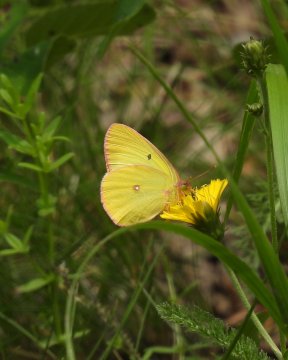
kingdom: Animalia
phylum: Arthropoda
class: Insecta
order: Lepidoptera
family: Pieridae
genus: Colias
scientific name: Colias interior
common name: Pink-edged Sulphur
